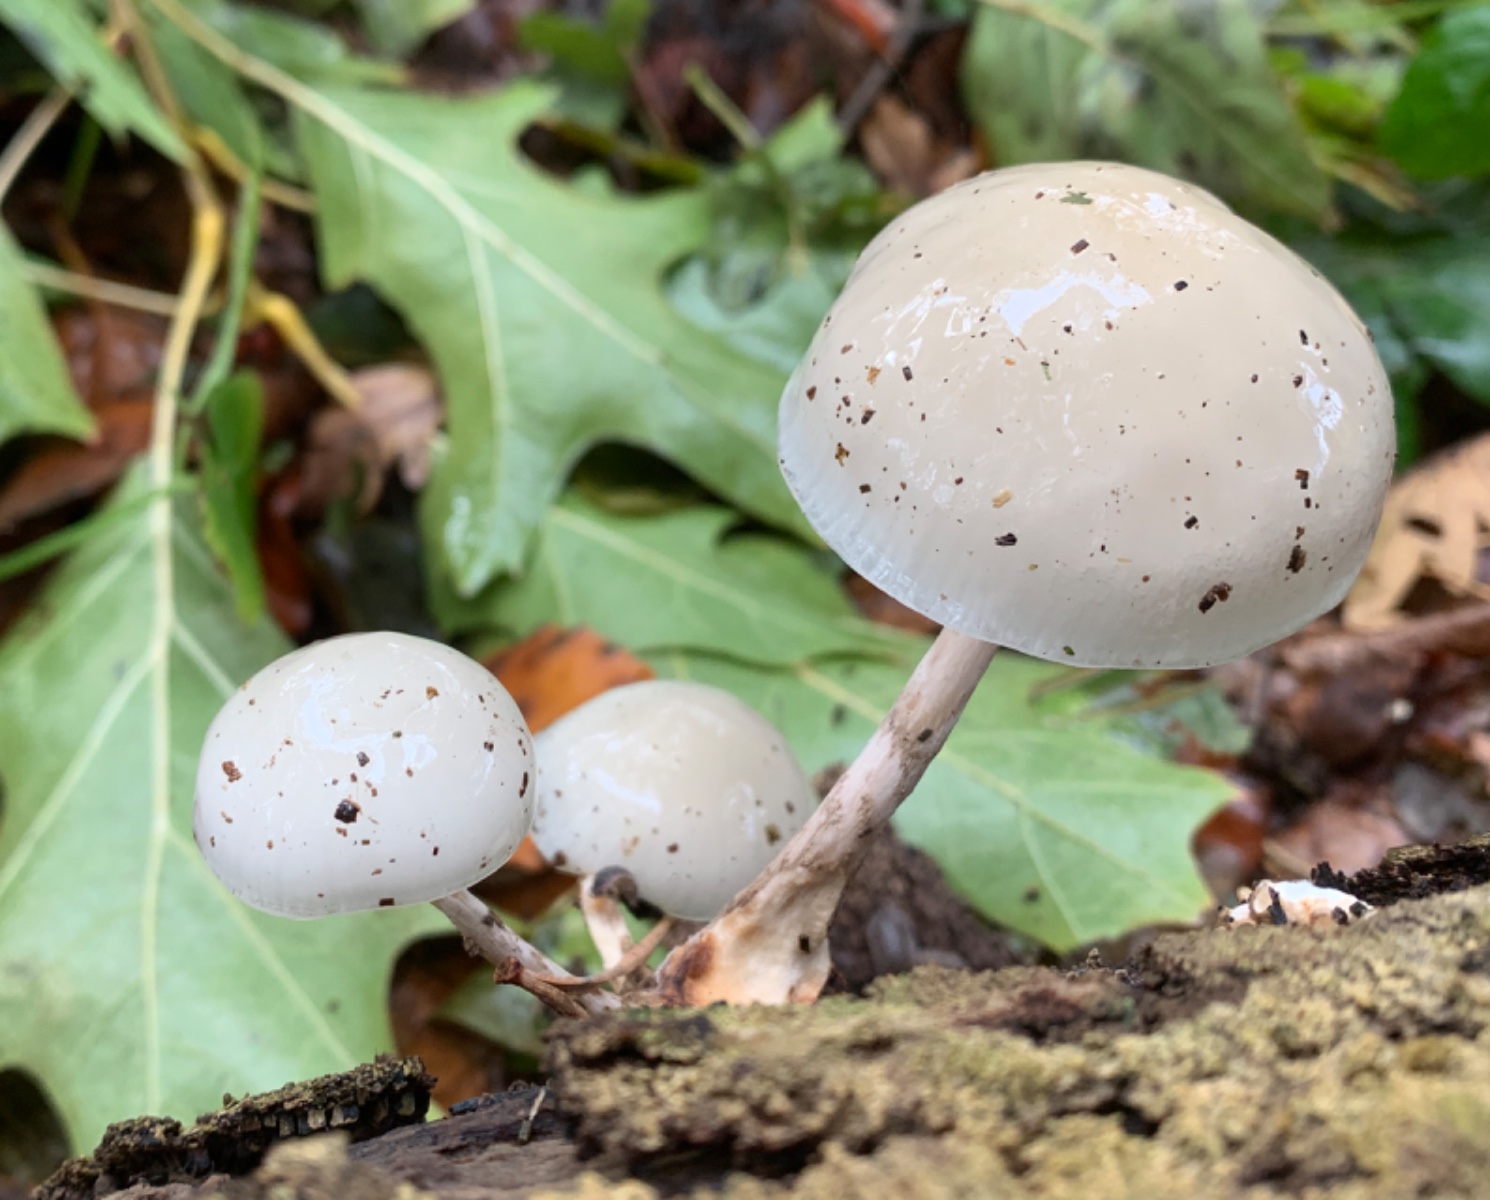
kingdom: Fungi
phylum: Basidiomycota
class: Agaricomycetes
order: Agaricales
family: Physalacriaceae
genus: Mucidula
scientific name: Mucidula mucida
